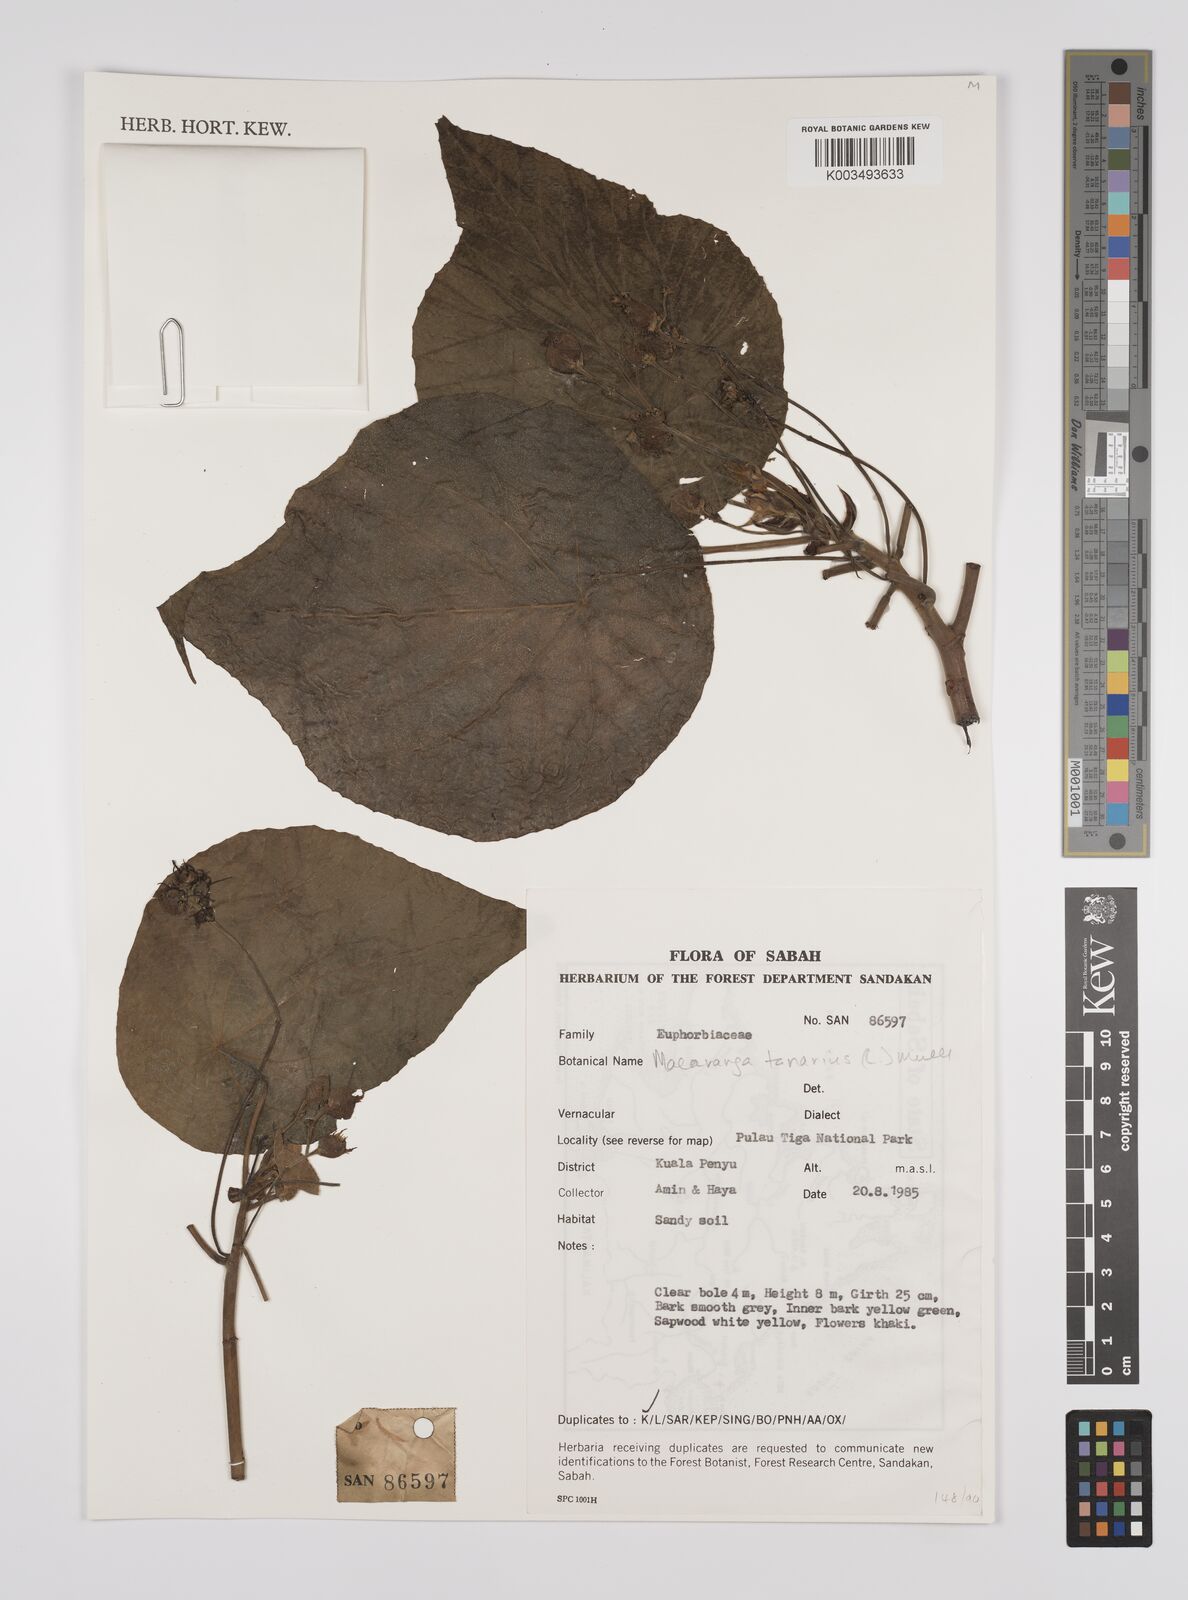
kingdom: Plantae
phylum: Tracheophyta
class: Magnoliopsida
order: Malpighiales
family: Euphorbiaceae
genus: Macaranga
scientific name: Macaranga tanarius
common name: Parasol leaf tree
